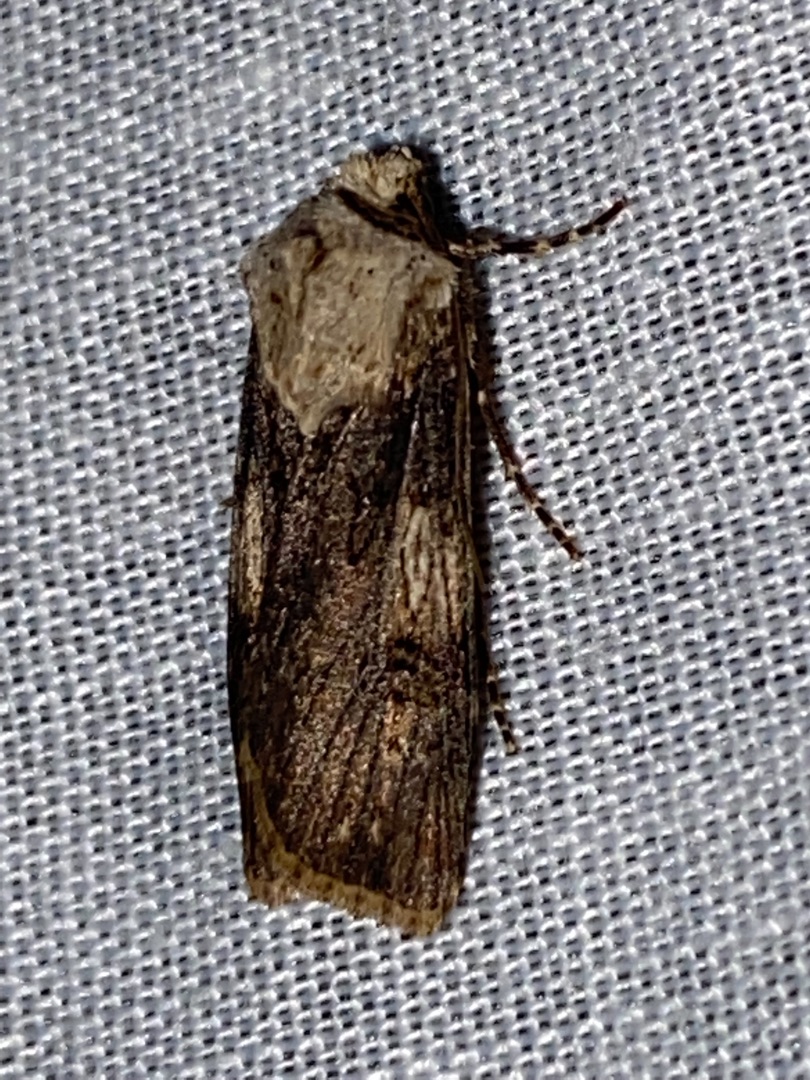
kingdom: Animalia
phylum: Arthropoda
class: Insecta
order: Lepidoptera
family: Noctuidae
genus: Agrotis
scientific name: Agrotis puta
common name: Frønnet landmand
